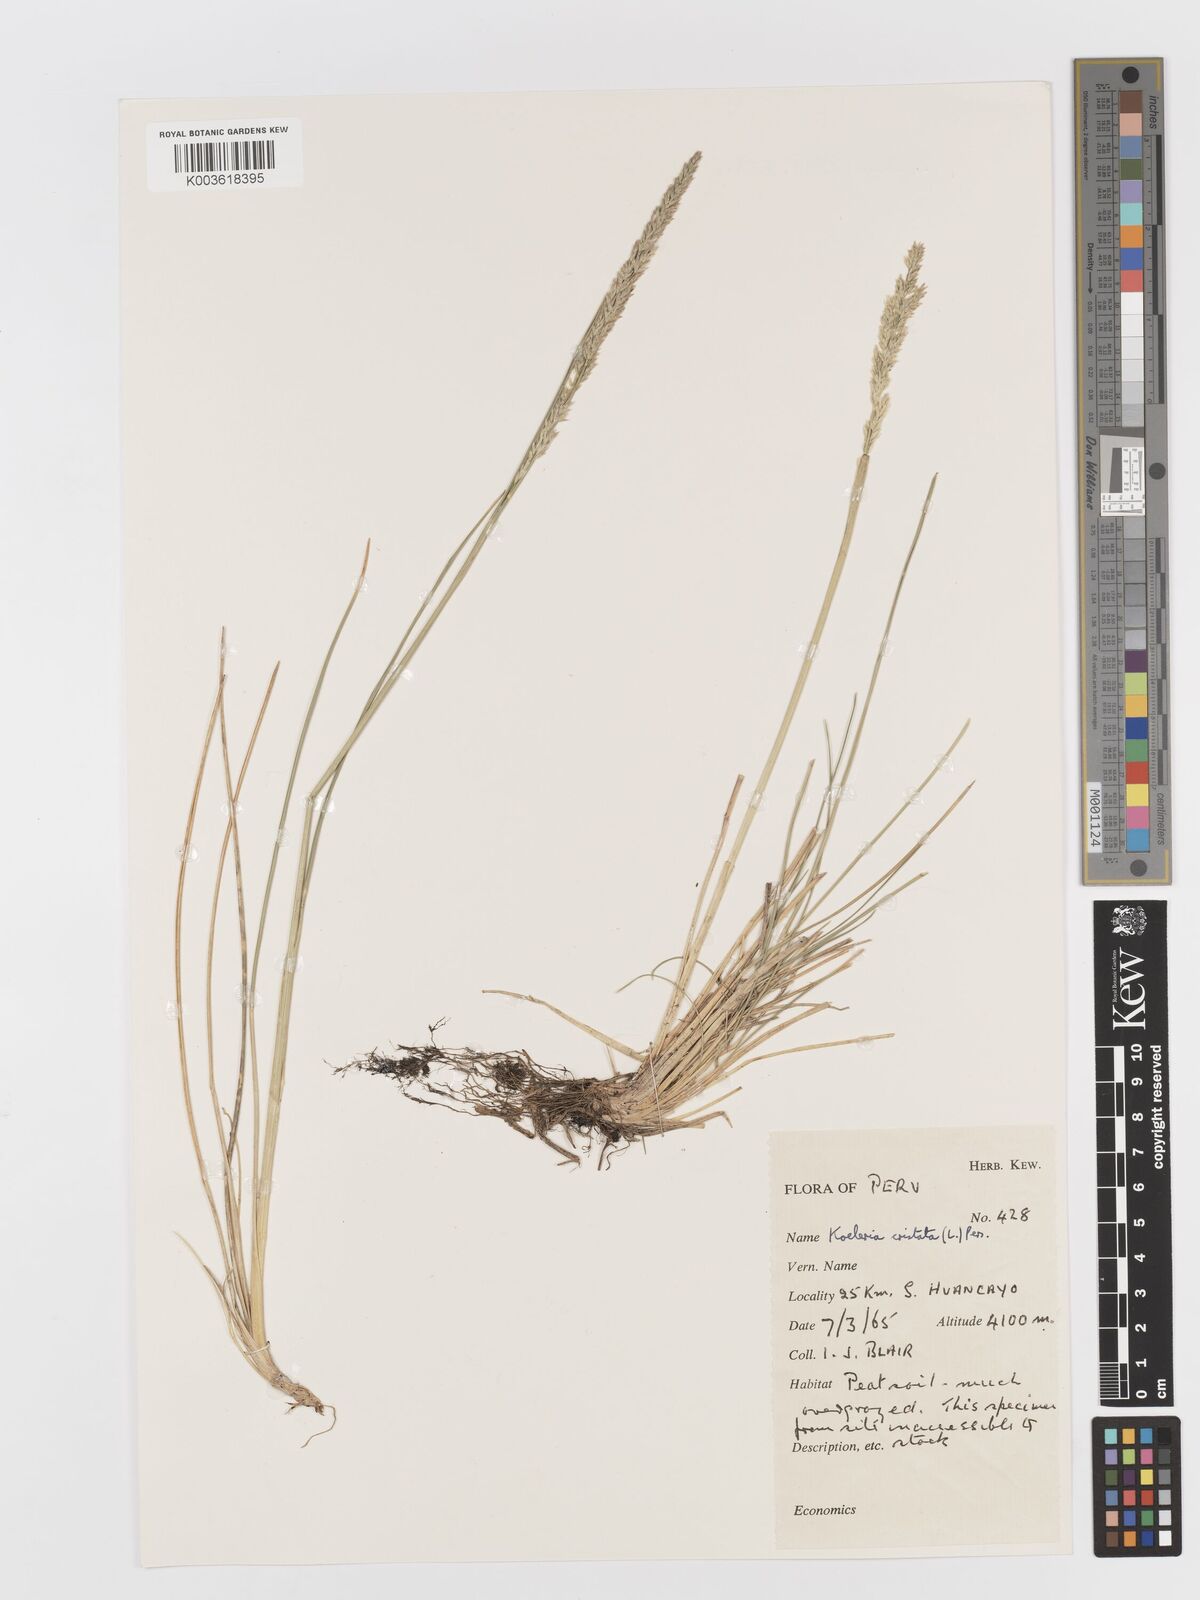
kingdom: Plantae
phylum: Tracheophyta
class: Liliopsida
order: Poales
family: Poaceae
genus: Koeleria
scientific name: Koeleria
